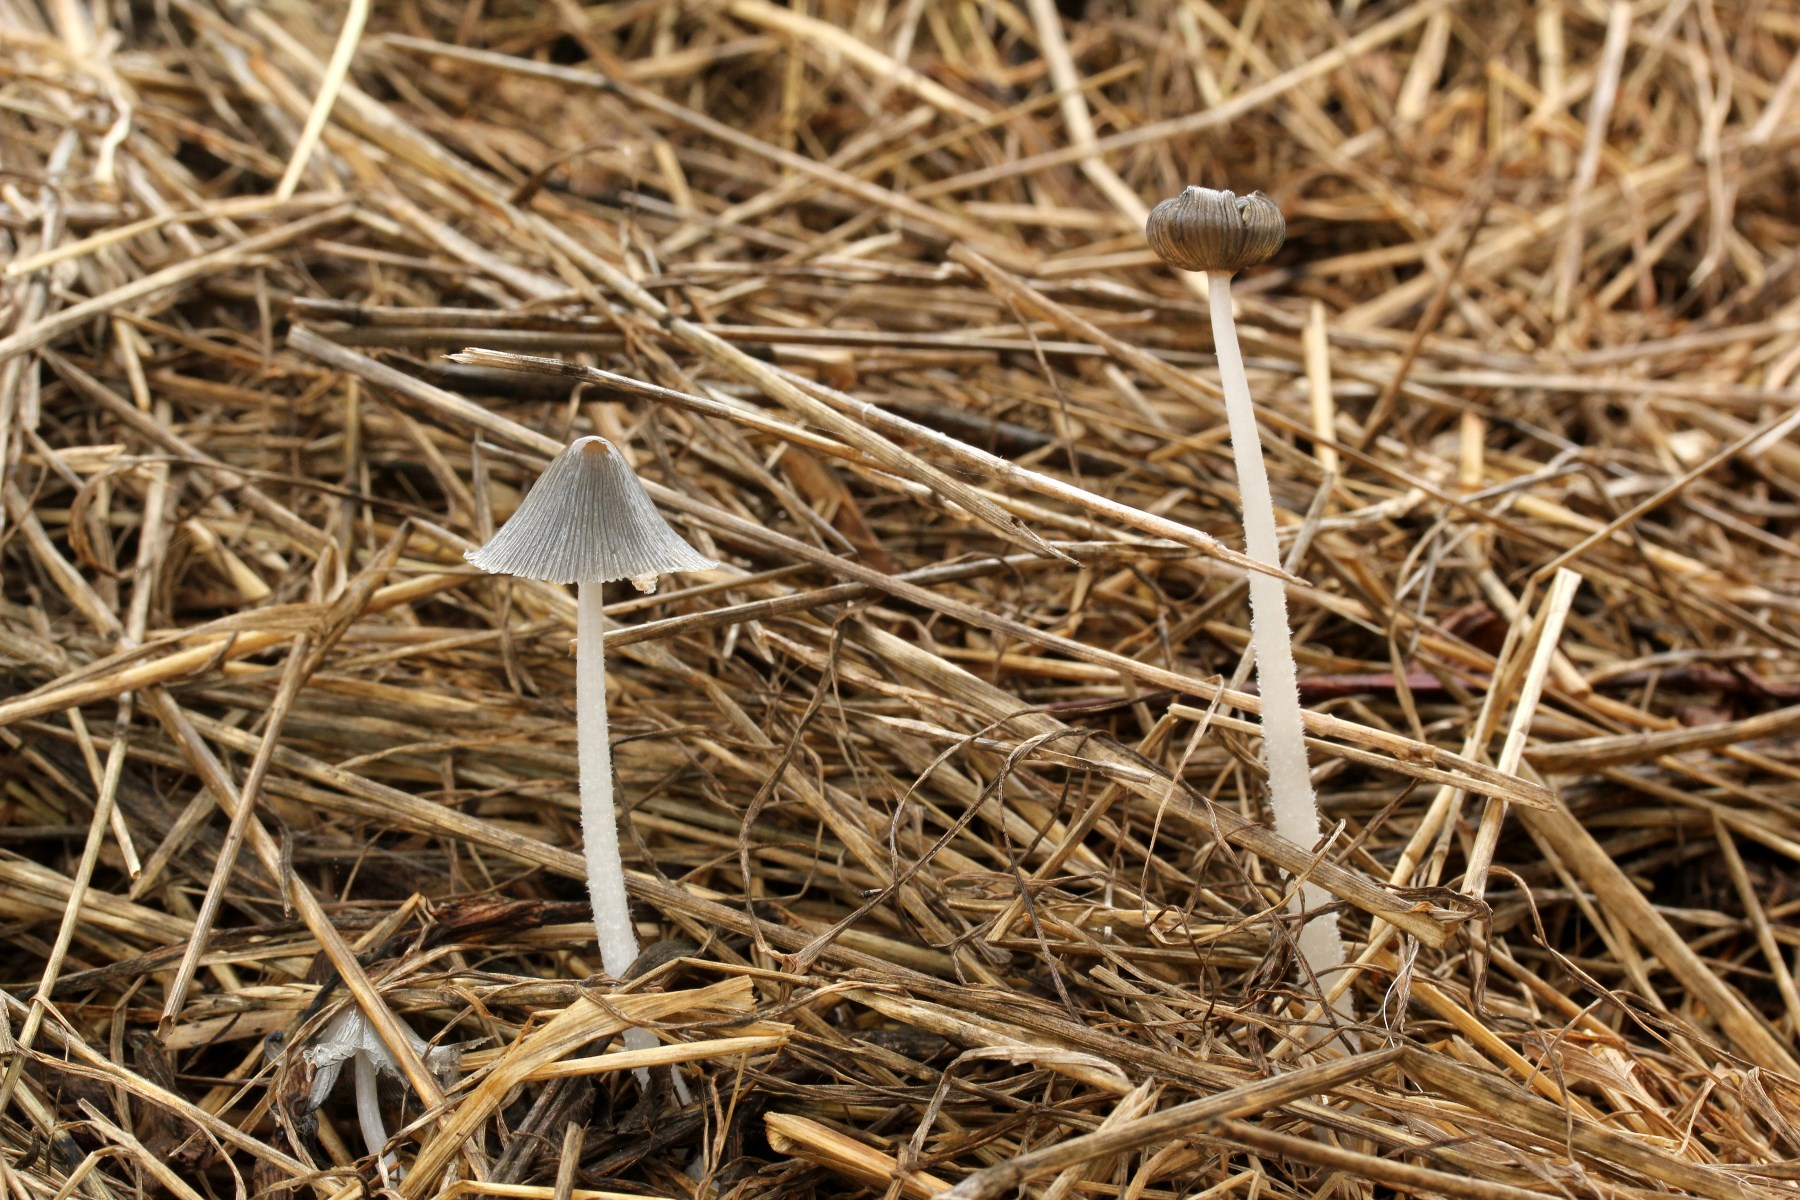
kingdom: Fungi
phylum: Basidiomycota
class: Agaricomycetes
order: Agaricales
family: Psathyrellaceae
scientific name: Psathyrellaceae
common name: mørkhatfamilien
